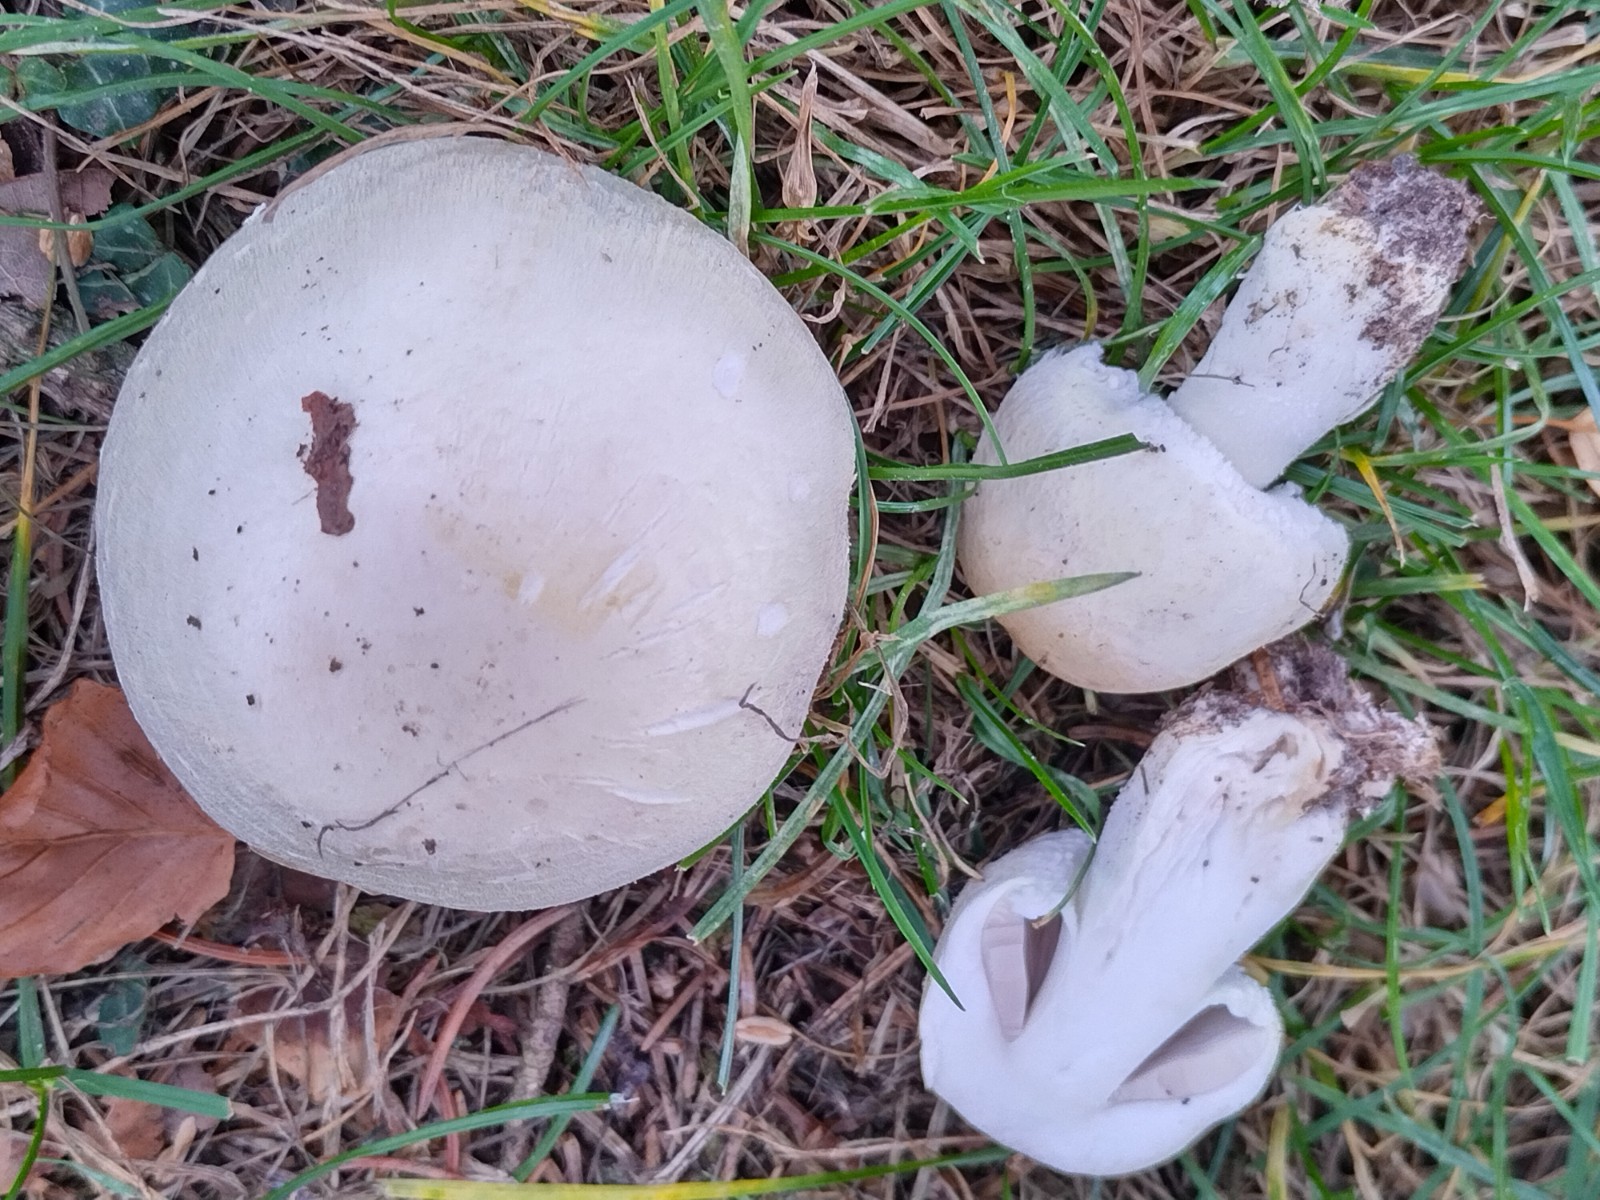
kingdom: Fungi
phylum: Basidiomycota
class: Agaricomycetes
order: Agaricales
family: Agaricaceae
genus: Agaricus
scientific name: Agaricus
